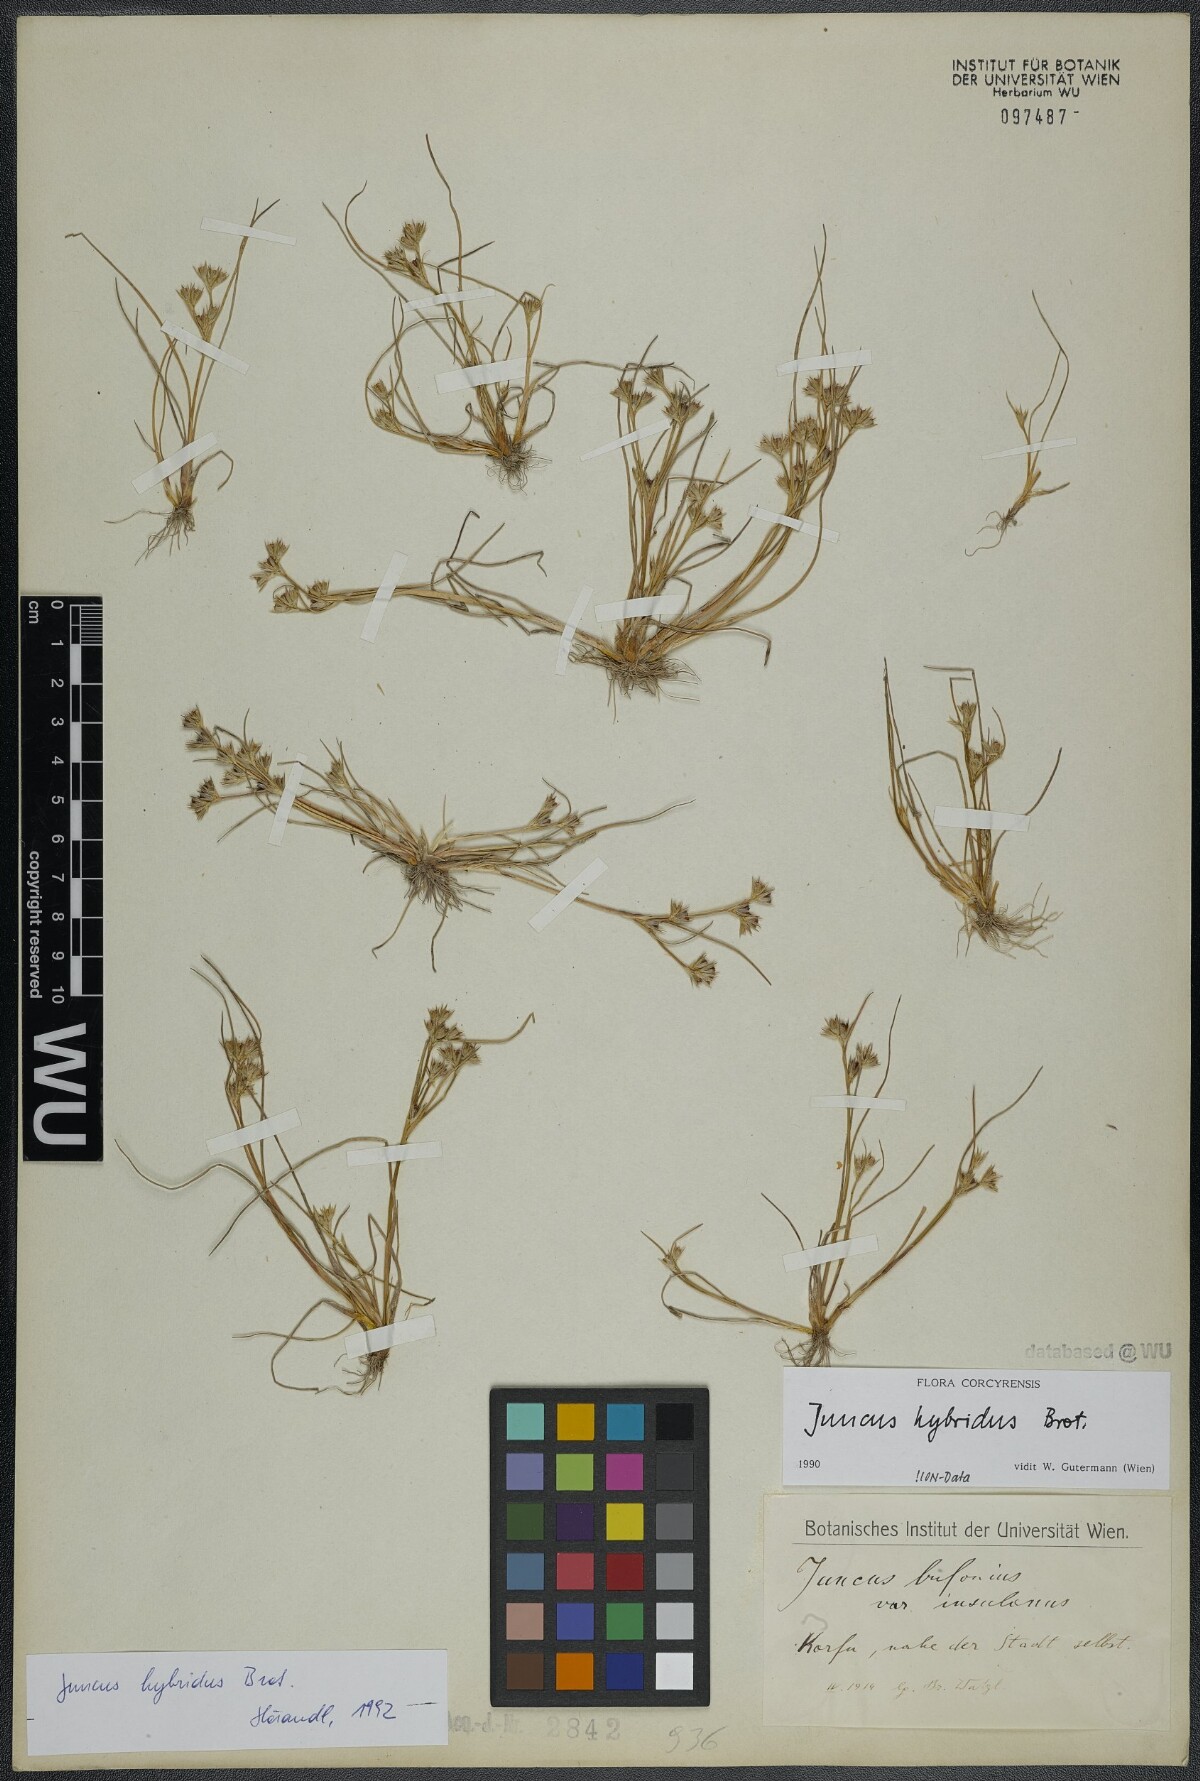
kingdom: Plantae
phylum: Tracheophyta
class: Liliopsida
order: Poales
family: Juncaceae
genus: Juncus
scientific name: Juncus hybridus
